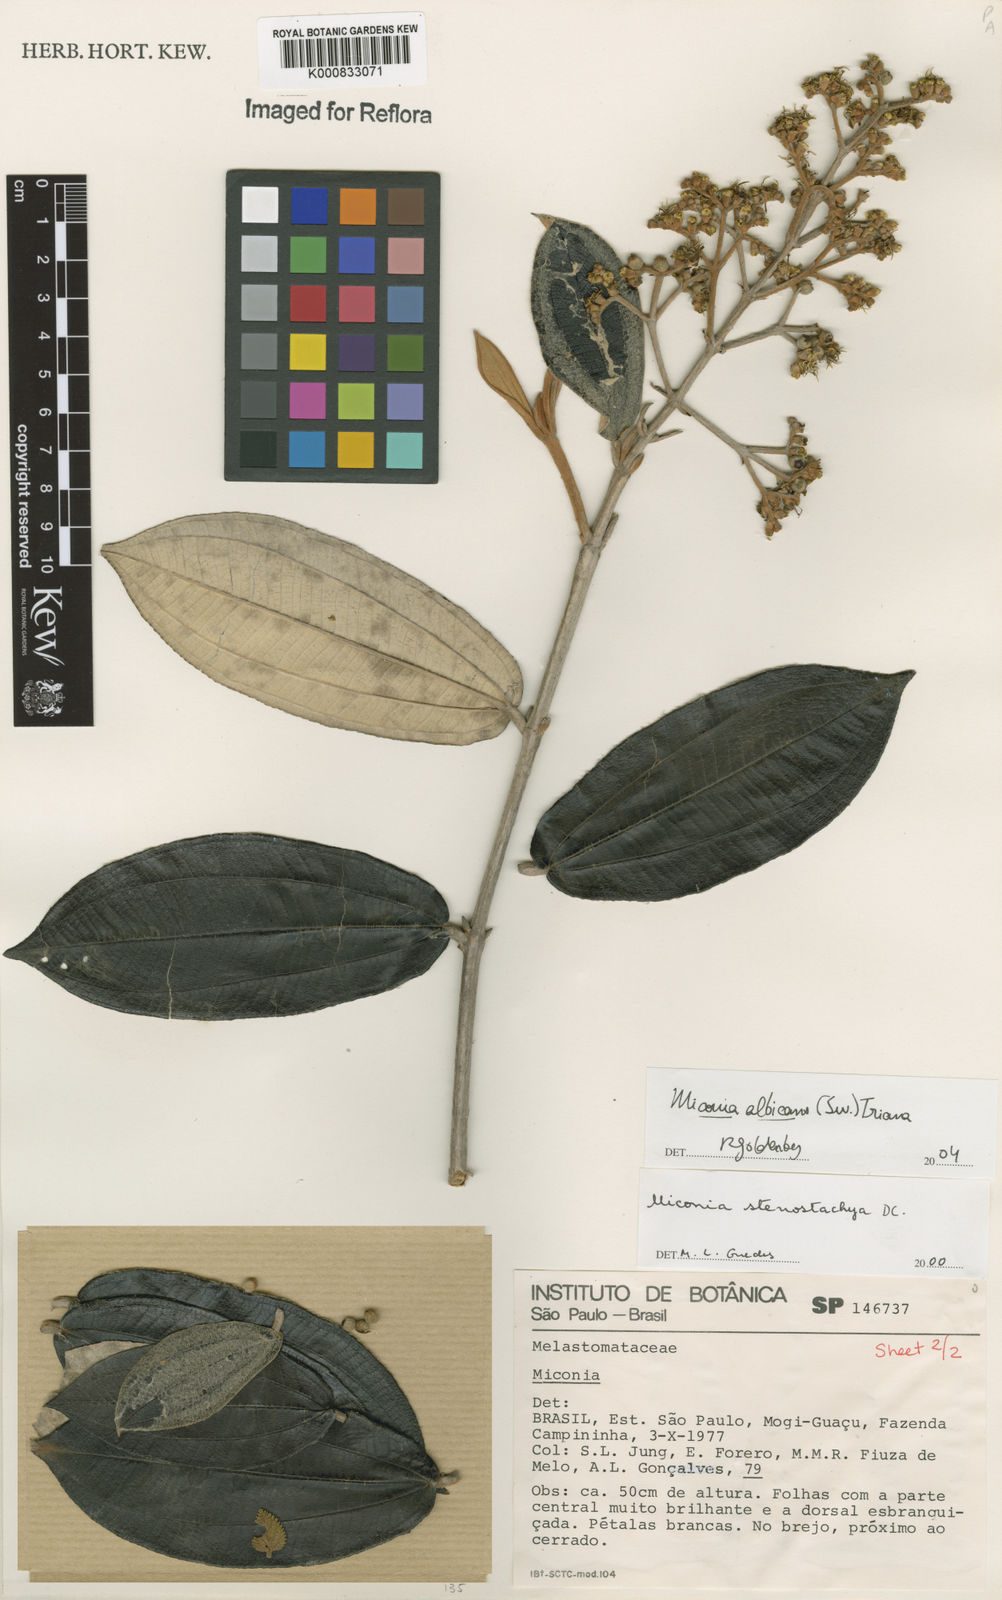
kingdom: Plantae
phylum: Tracheophyta
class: Magnoliopsida
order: Myrtales
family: Melastomataceae
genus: Miconia
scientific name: Miconia albicans
